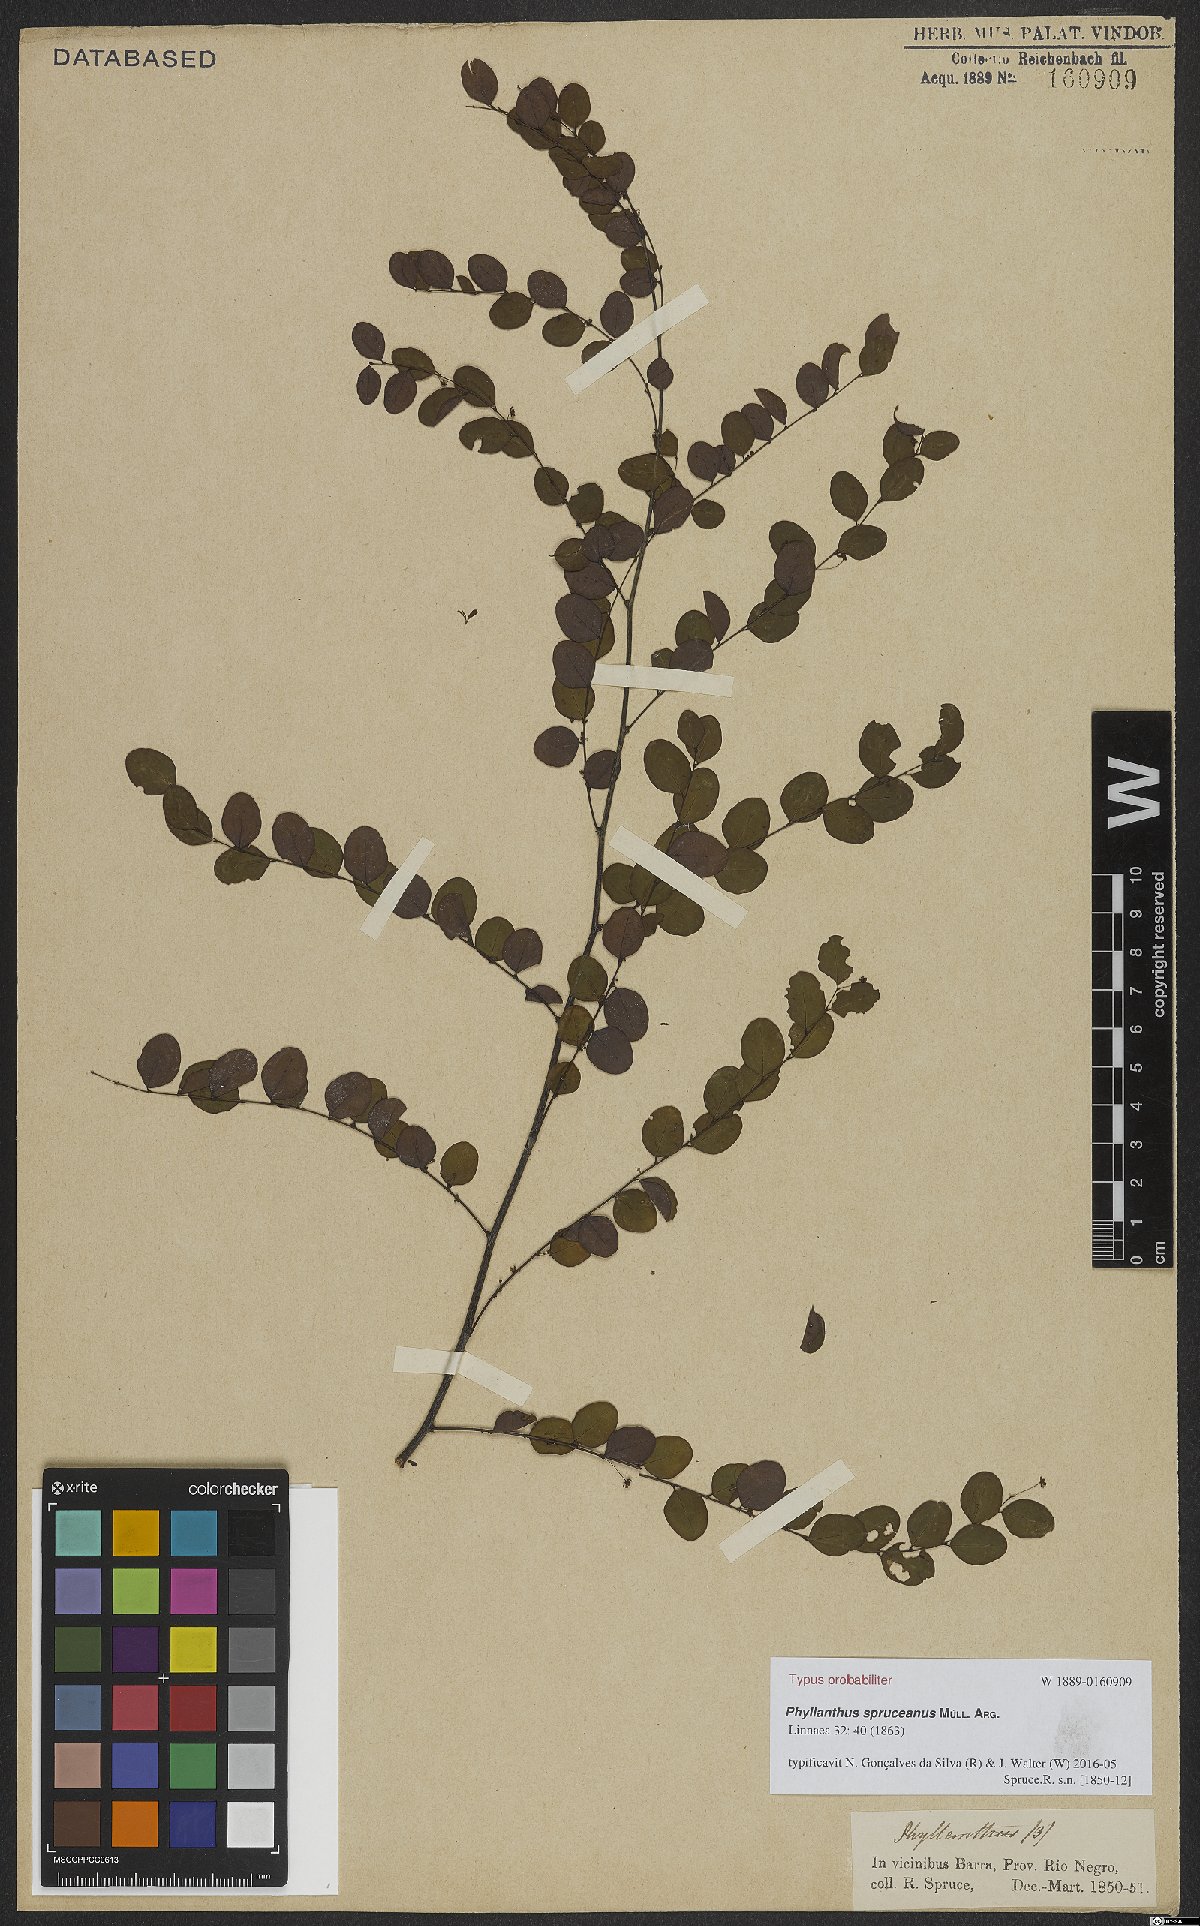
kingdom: Plantae
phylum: Tracheophyta
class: Magnoliopsida
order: Malpighiales
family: Phyllanthaceae
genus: Phyllanthus
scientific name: Phyllanthus spruceanus
